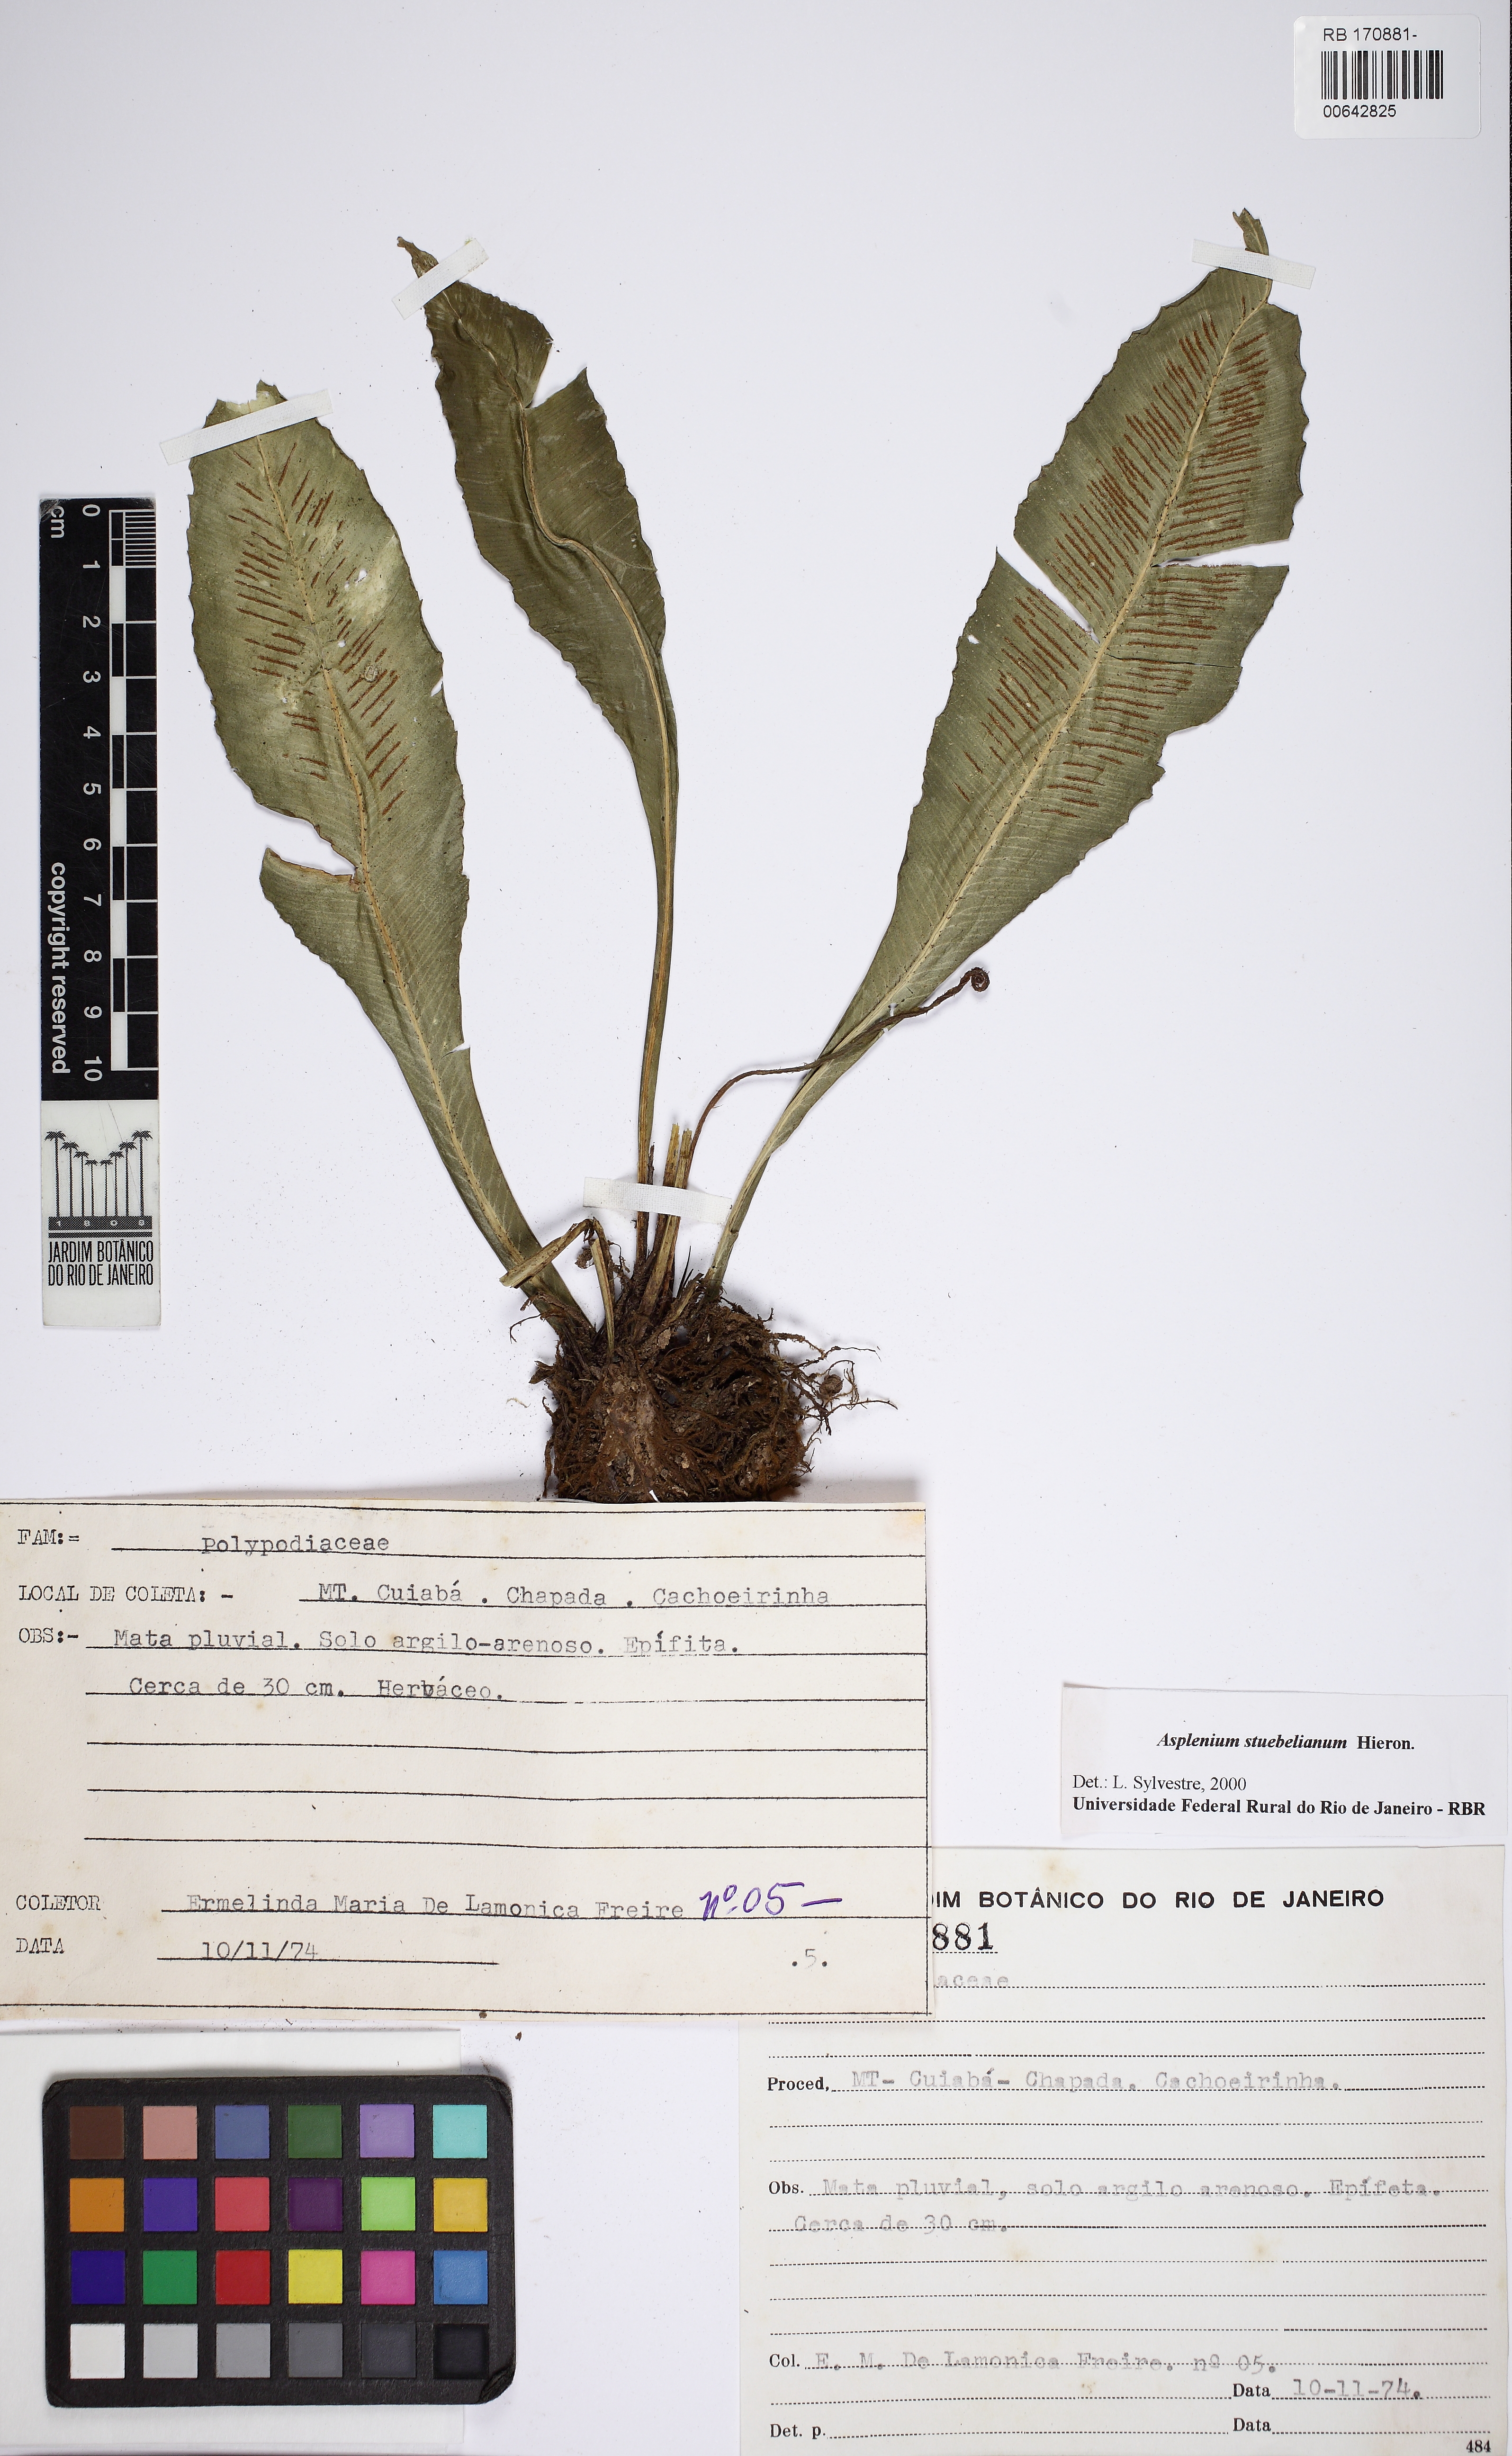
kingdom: Plantae
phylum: Tracheophyta
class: Polypodiopsida
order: Polypodiales
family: Aspleniaceae
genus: Asplenium
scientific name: Asplenium stuebelianum
